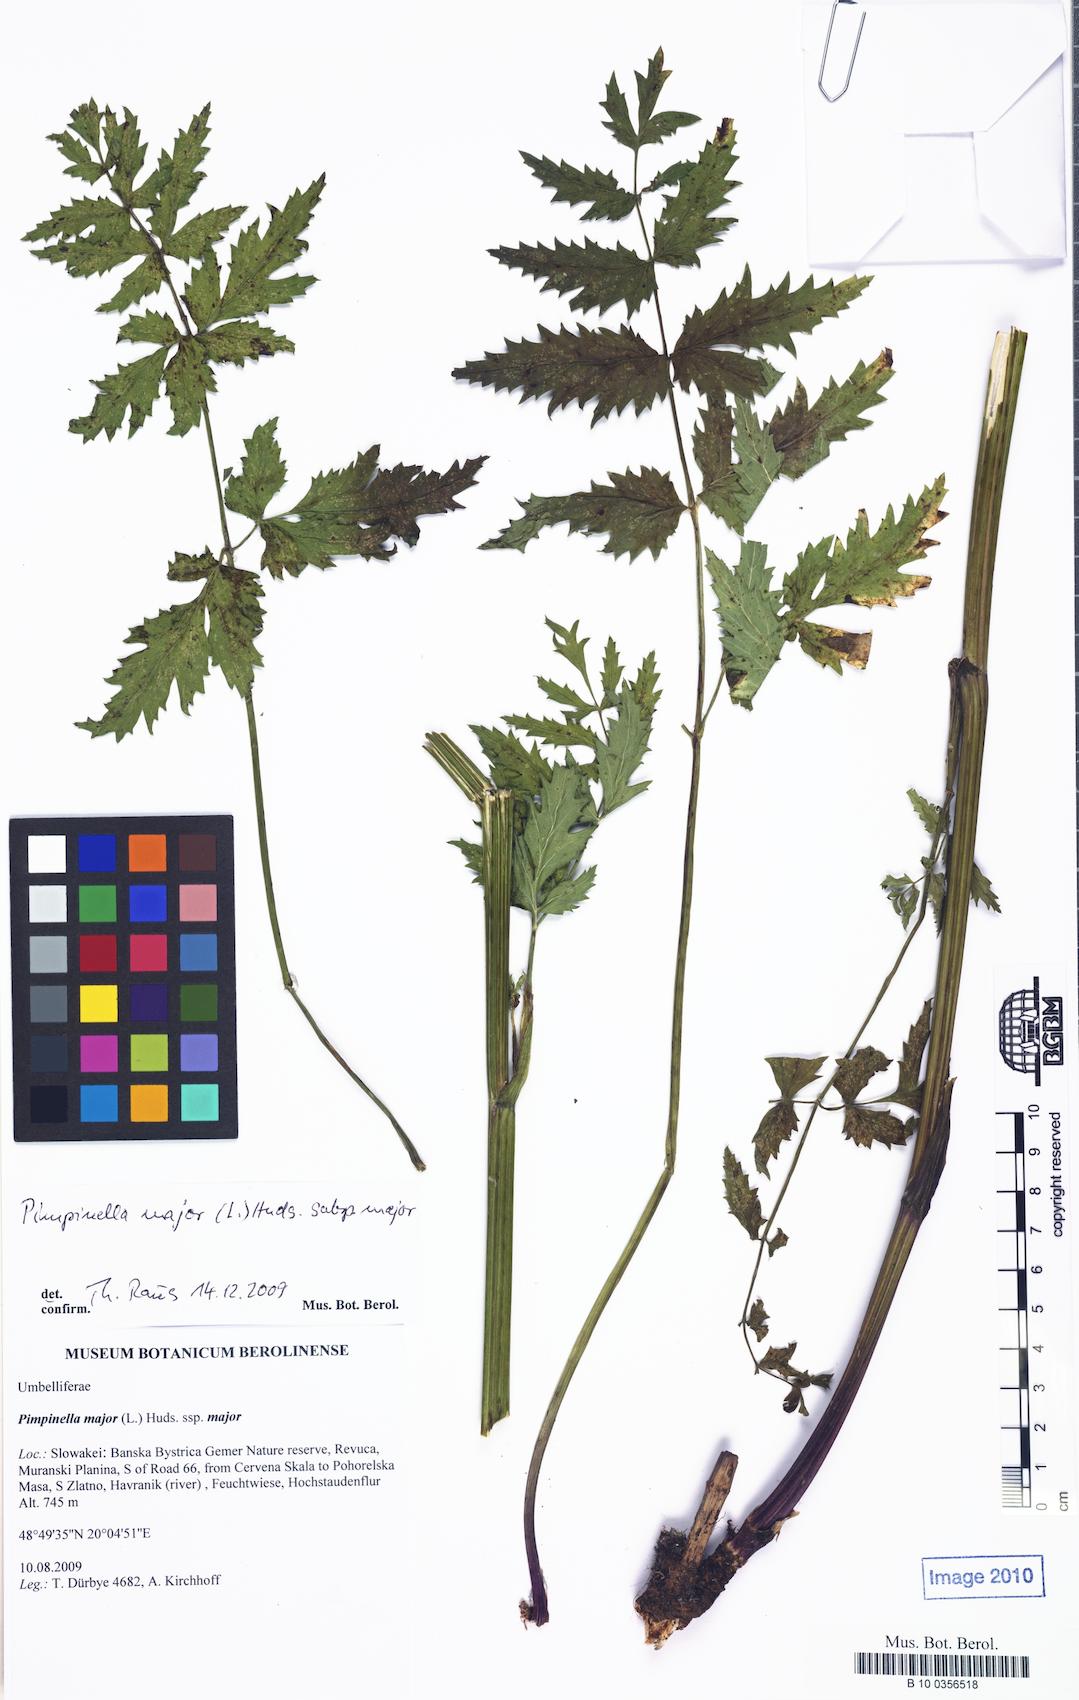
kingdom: Plantae
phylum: Tracheophyta
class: Magnoliopsida
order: Apiales
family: Apiaceae
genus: Pimpinella
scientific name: Pimpinella major
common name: Greater burnet-saxifrage
